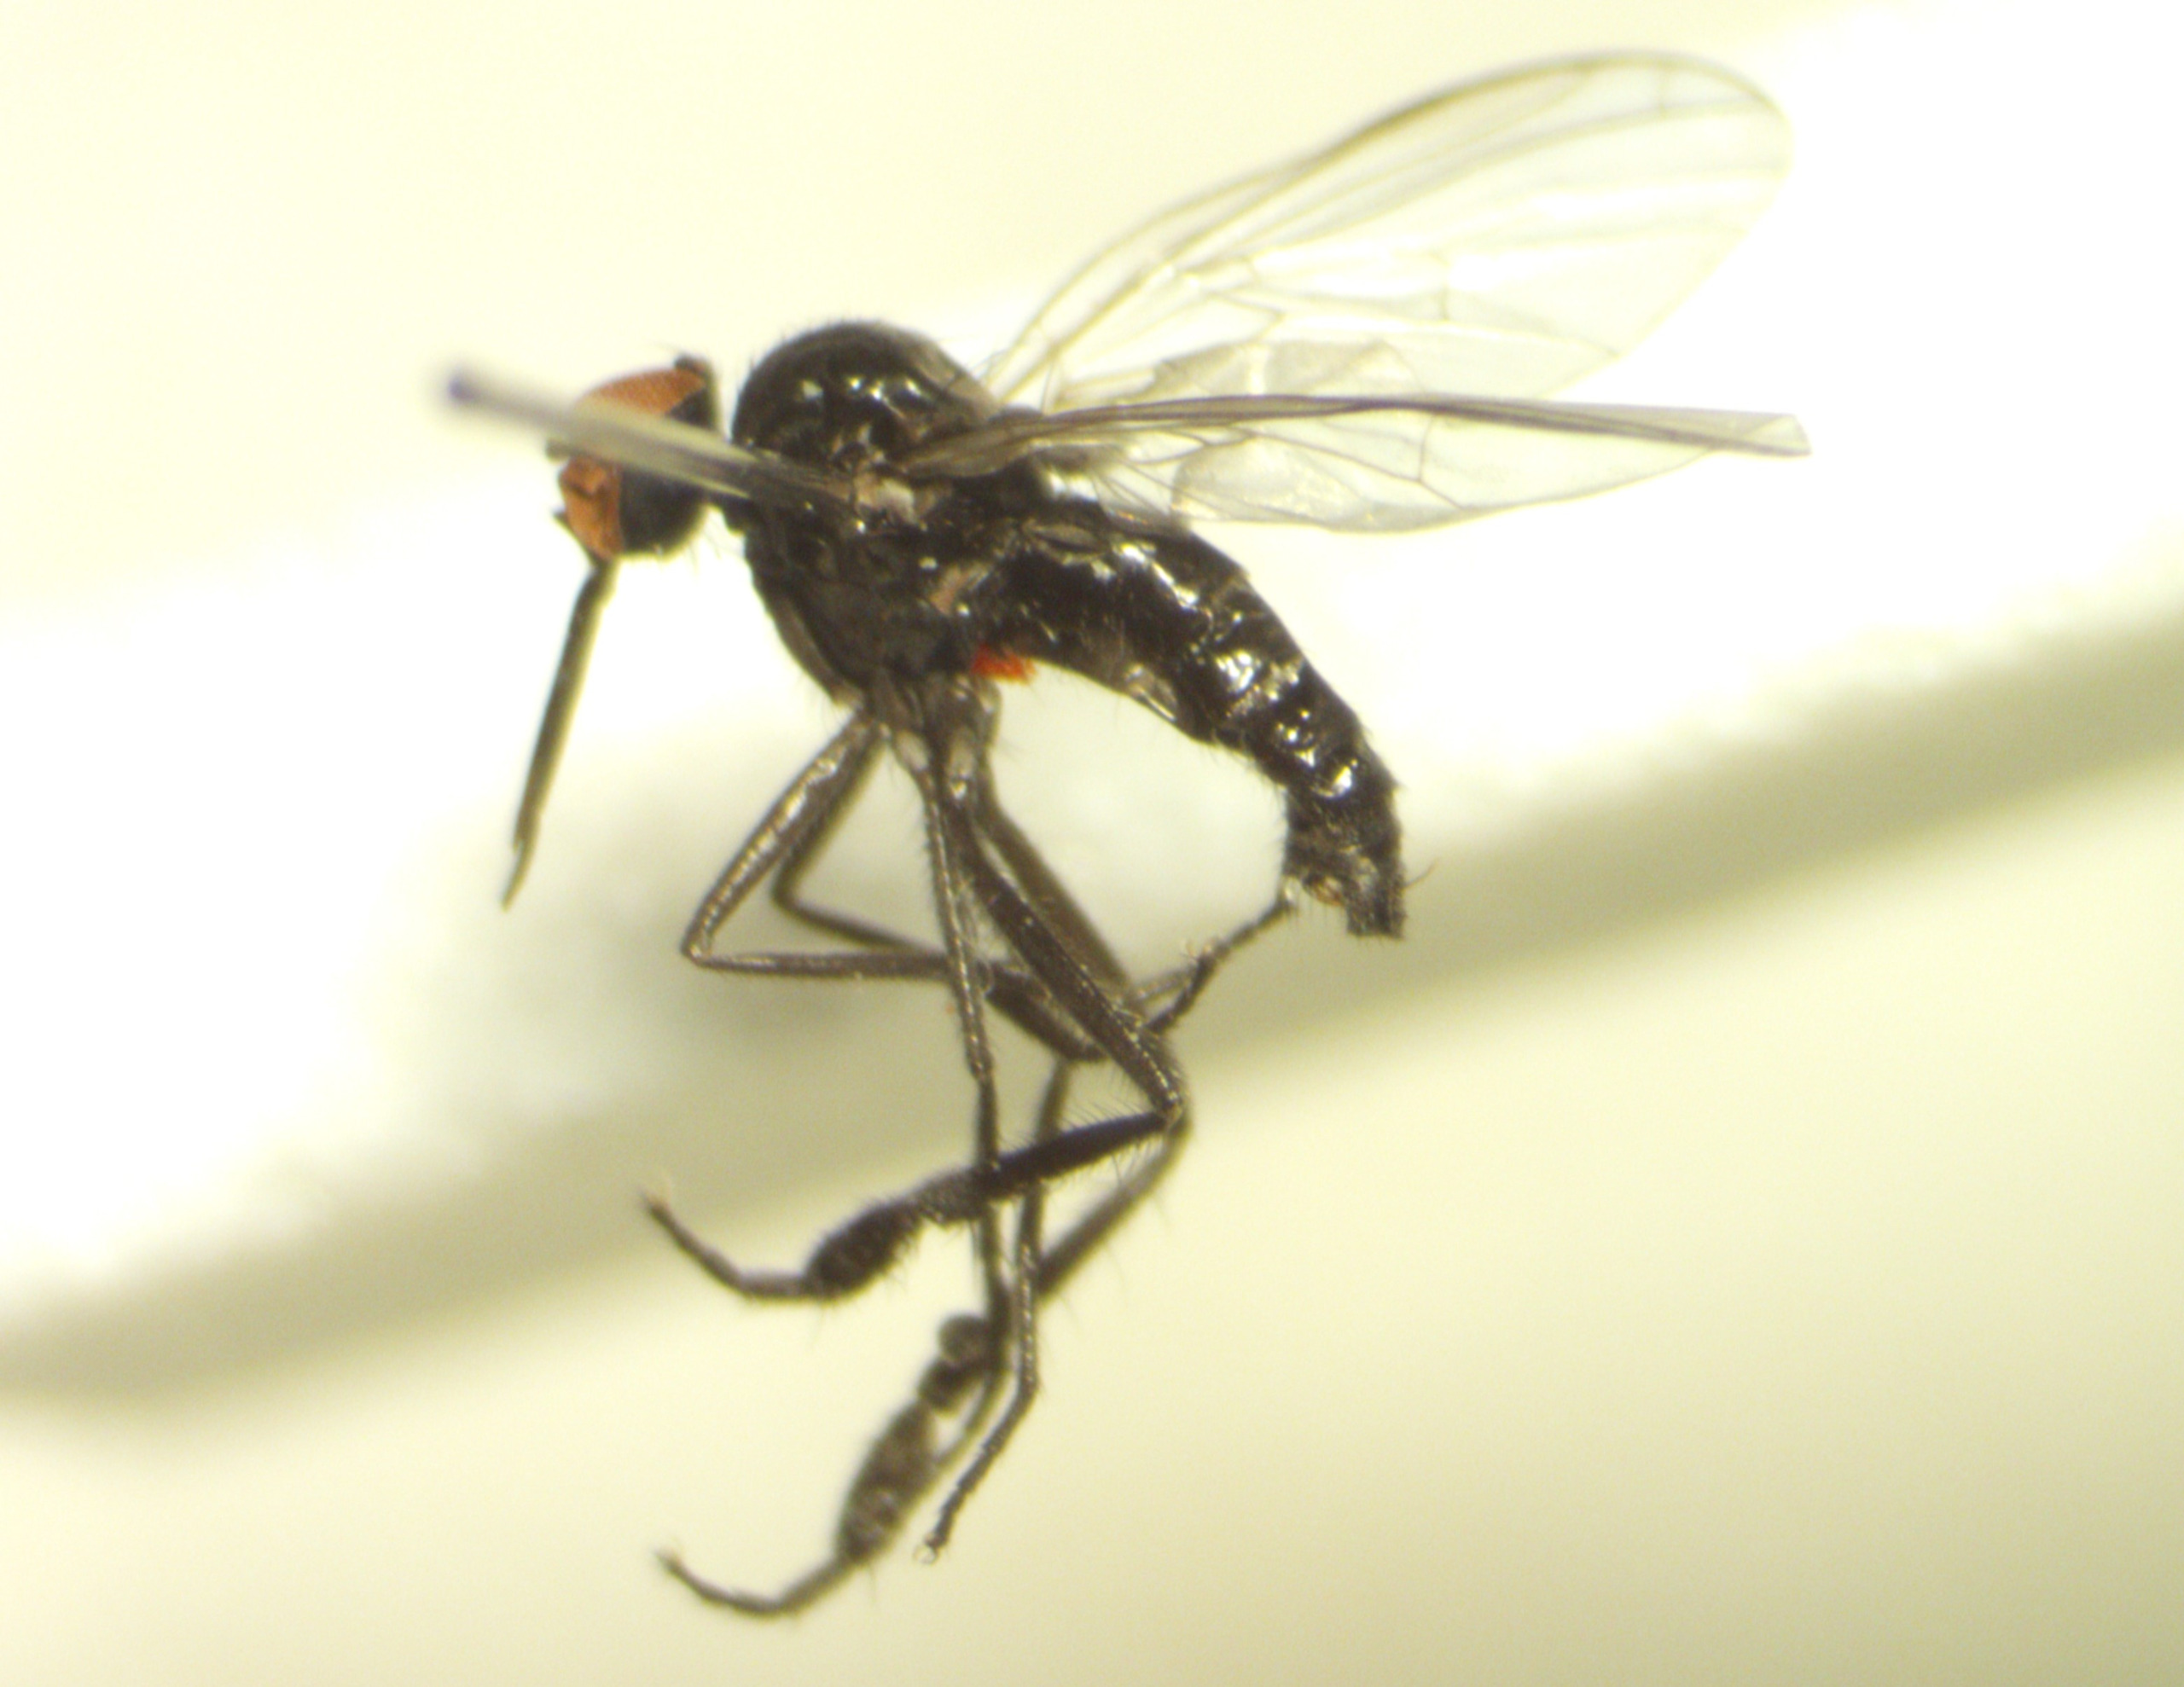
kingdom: Animalia
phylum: Arthropoda
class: Insecta
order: Diptera
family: Empididae
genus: Empis
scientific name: Empis aestiva
